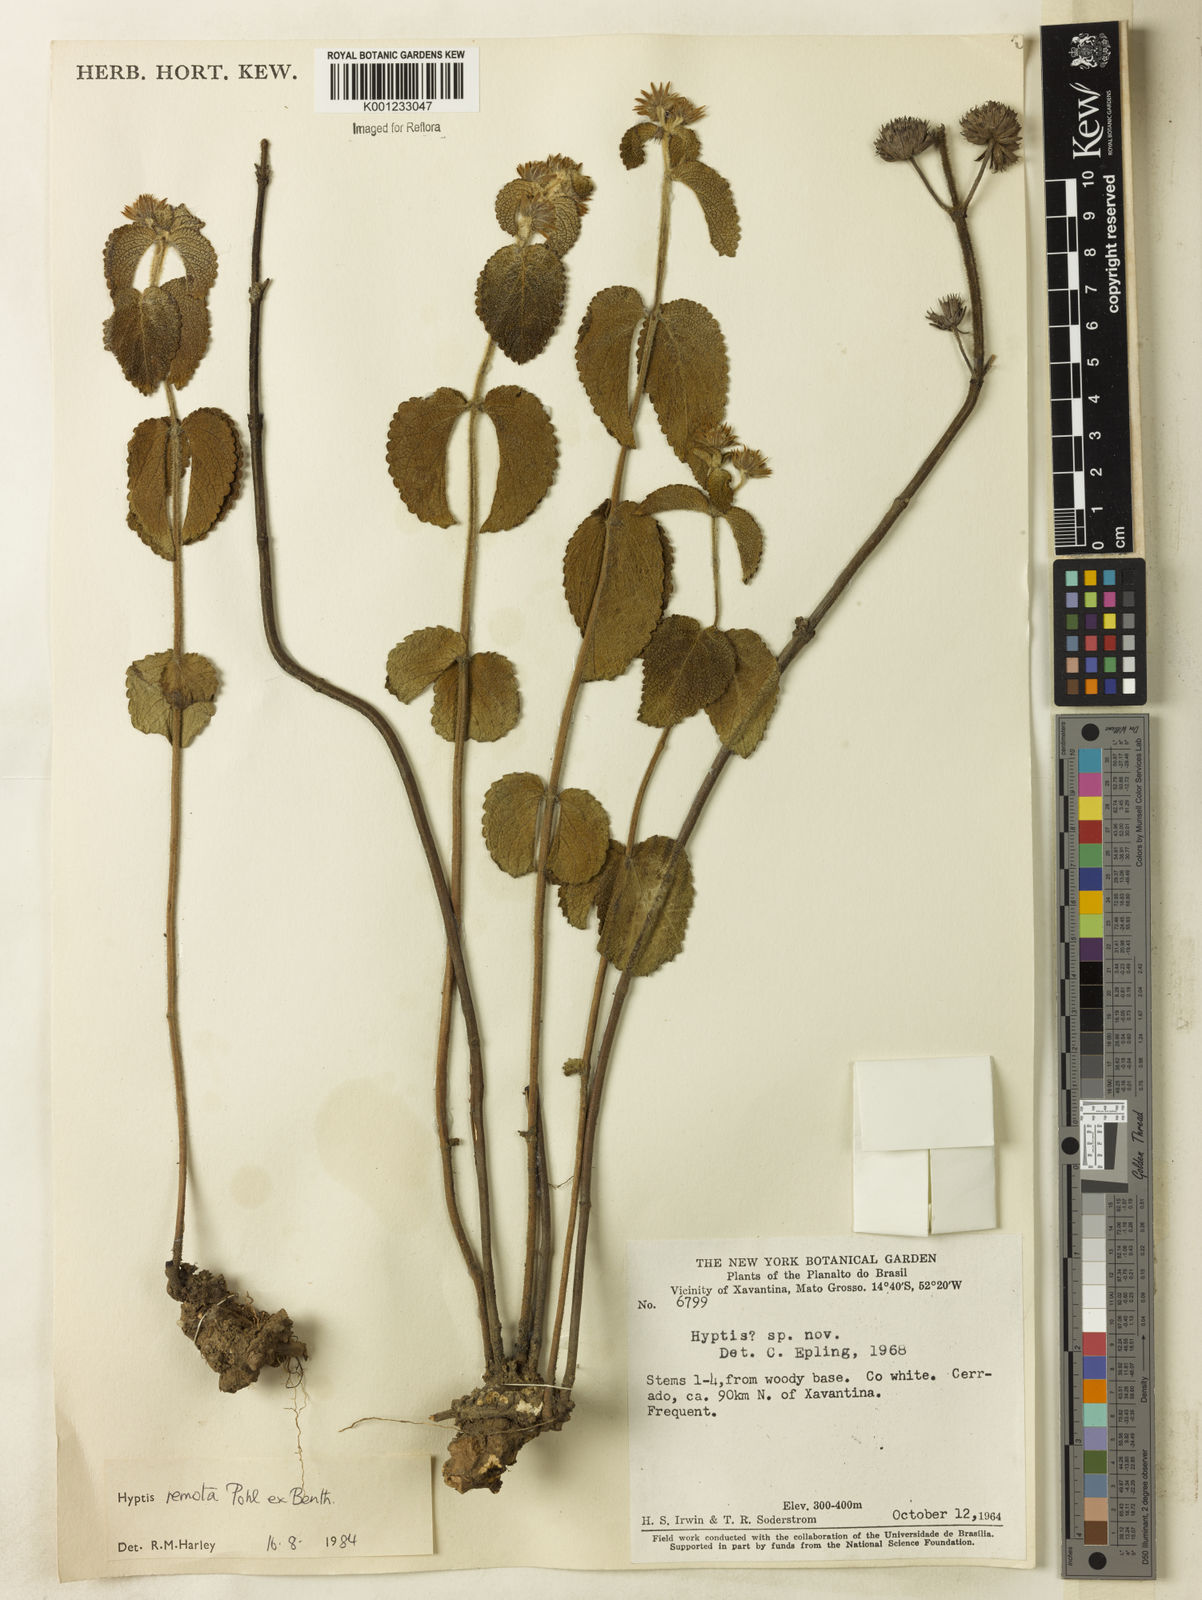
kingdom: Plantae
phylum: Tracheophyta
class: Magnoliopsida
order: Lamiales
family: Lamiaceae
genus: Hyptis
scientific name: Hyptis remota
